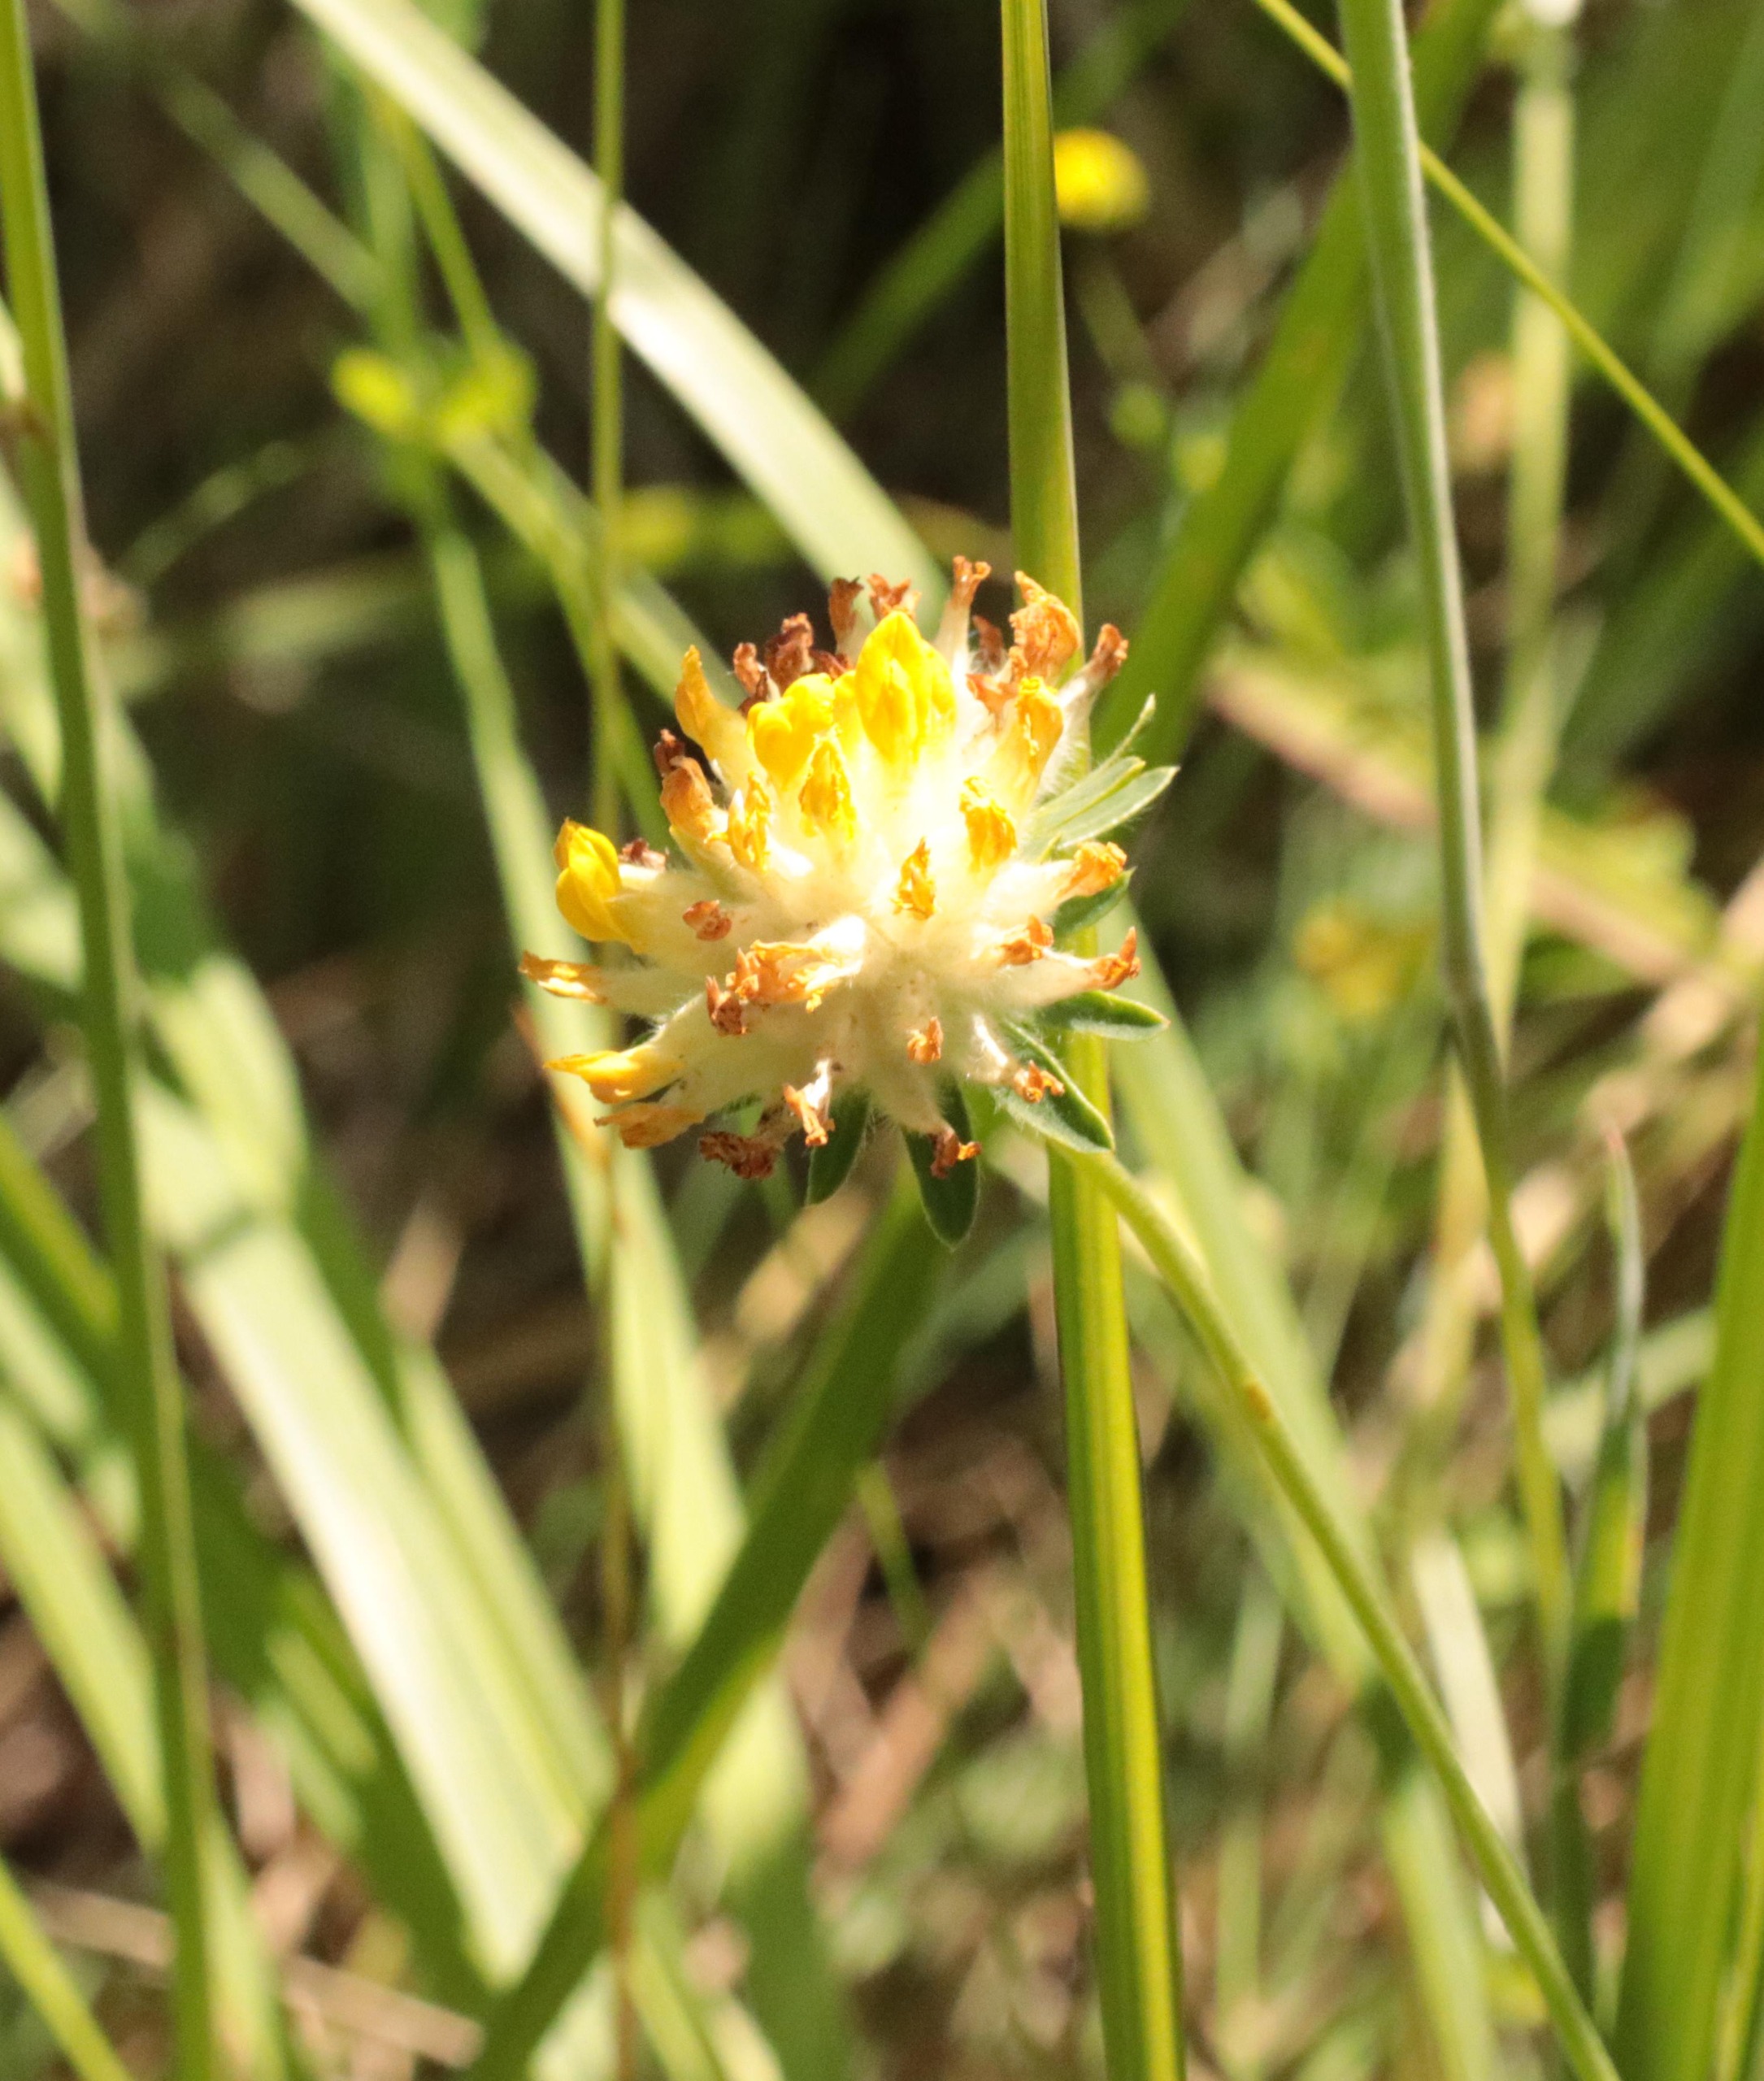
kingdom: Plantae
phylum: Tracheophyta
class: Magnoliopsida
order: Fabales
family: Fabaceae
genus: Anthyllis
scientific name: Anthyllis vulneraria
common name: Rundbælg
